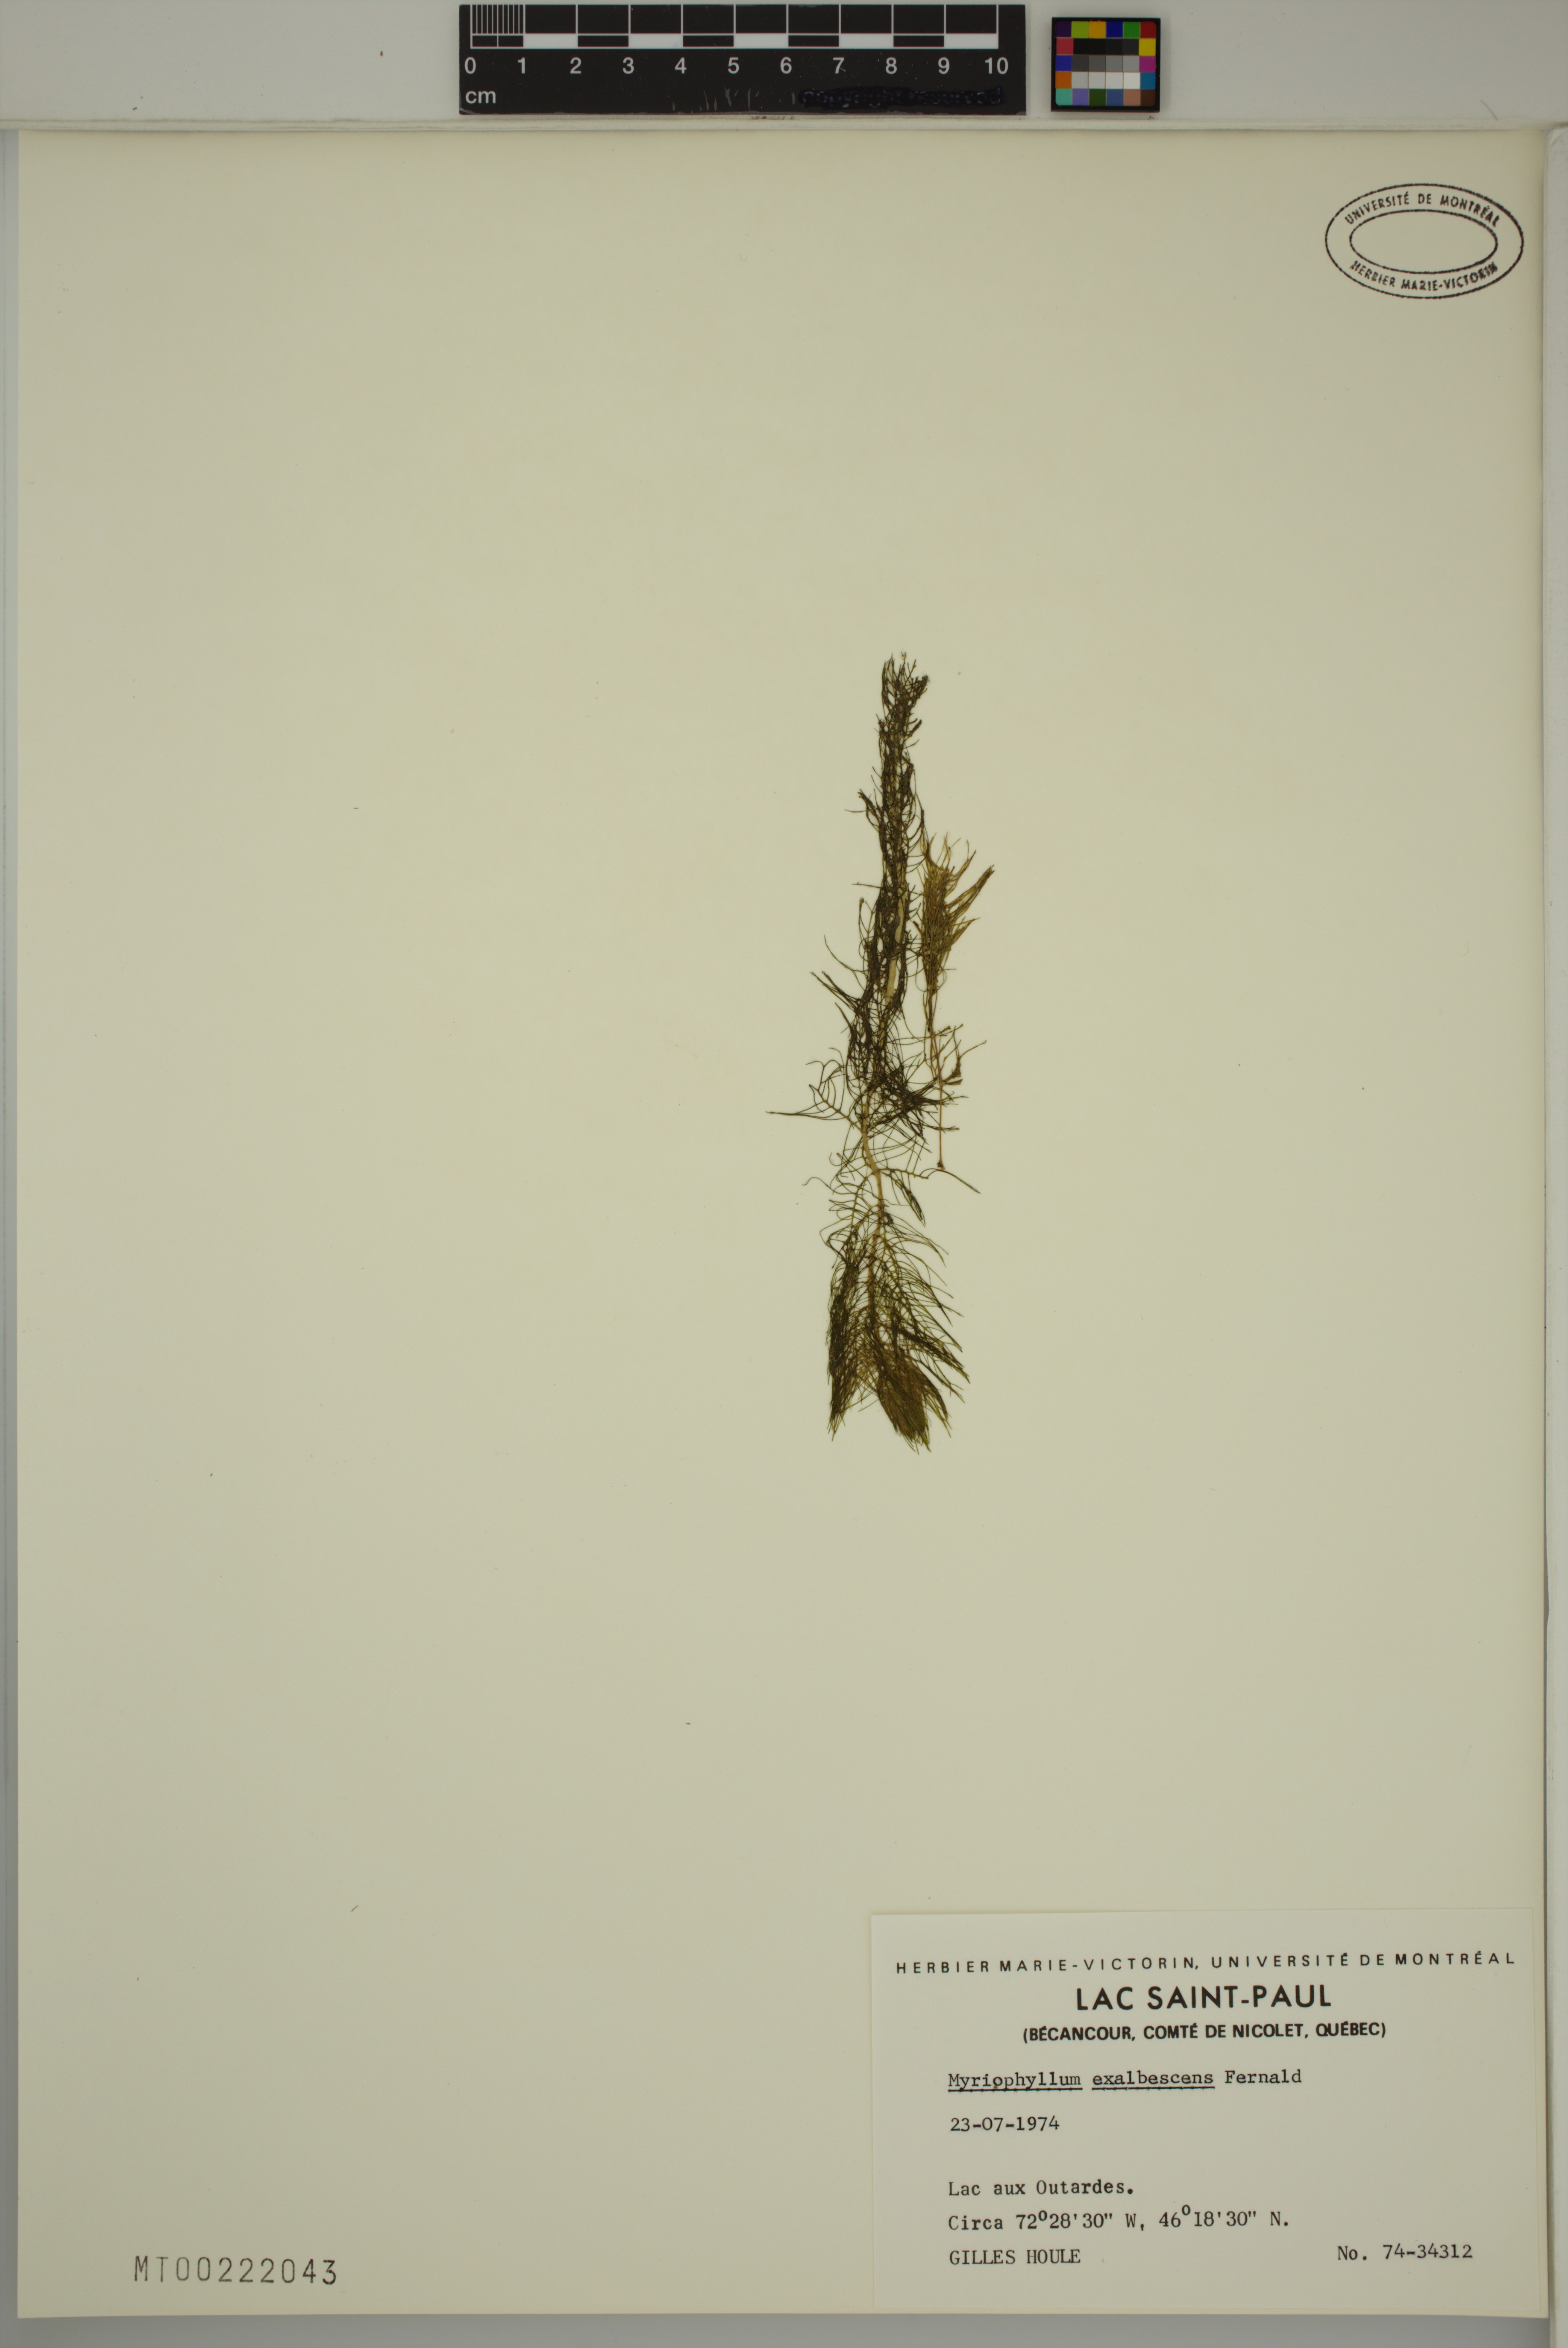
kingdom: Plantae
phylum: Tracheophyta
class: Magnoliopsida
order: Saxifragales
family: Haloragaceae
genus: Myriophyllum
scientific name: Myriophyllum sibiricum
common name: Siberian water-milfoil
